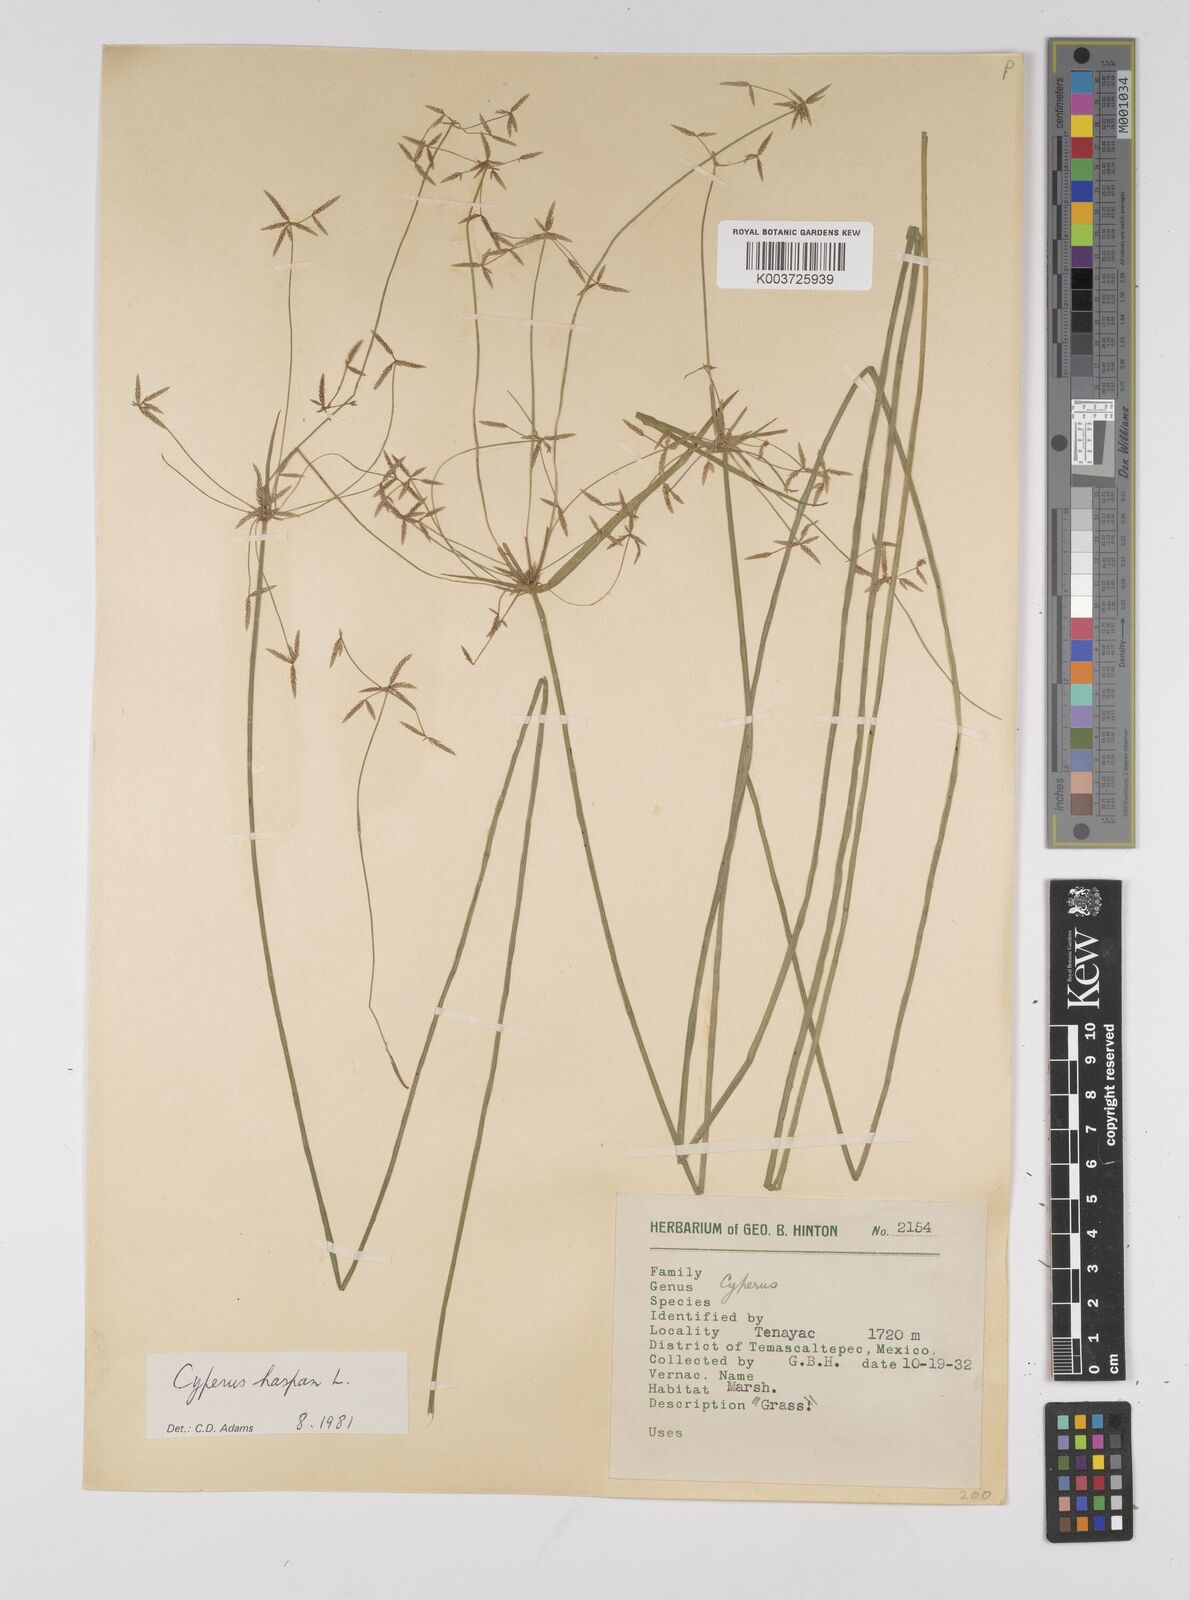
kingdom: Plantae
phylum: Tracheophyta
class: Liliopsida
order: Poales
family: Cyperaceae
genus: Cyperus
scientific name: Cyperus haspan
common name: Haspan flatsedge
